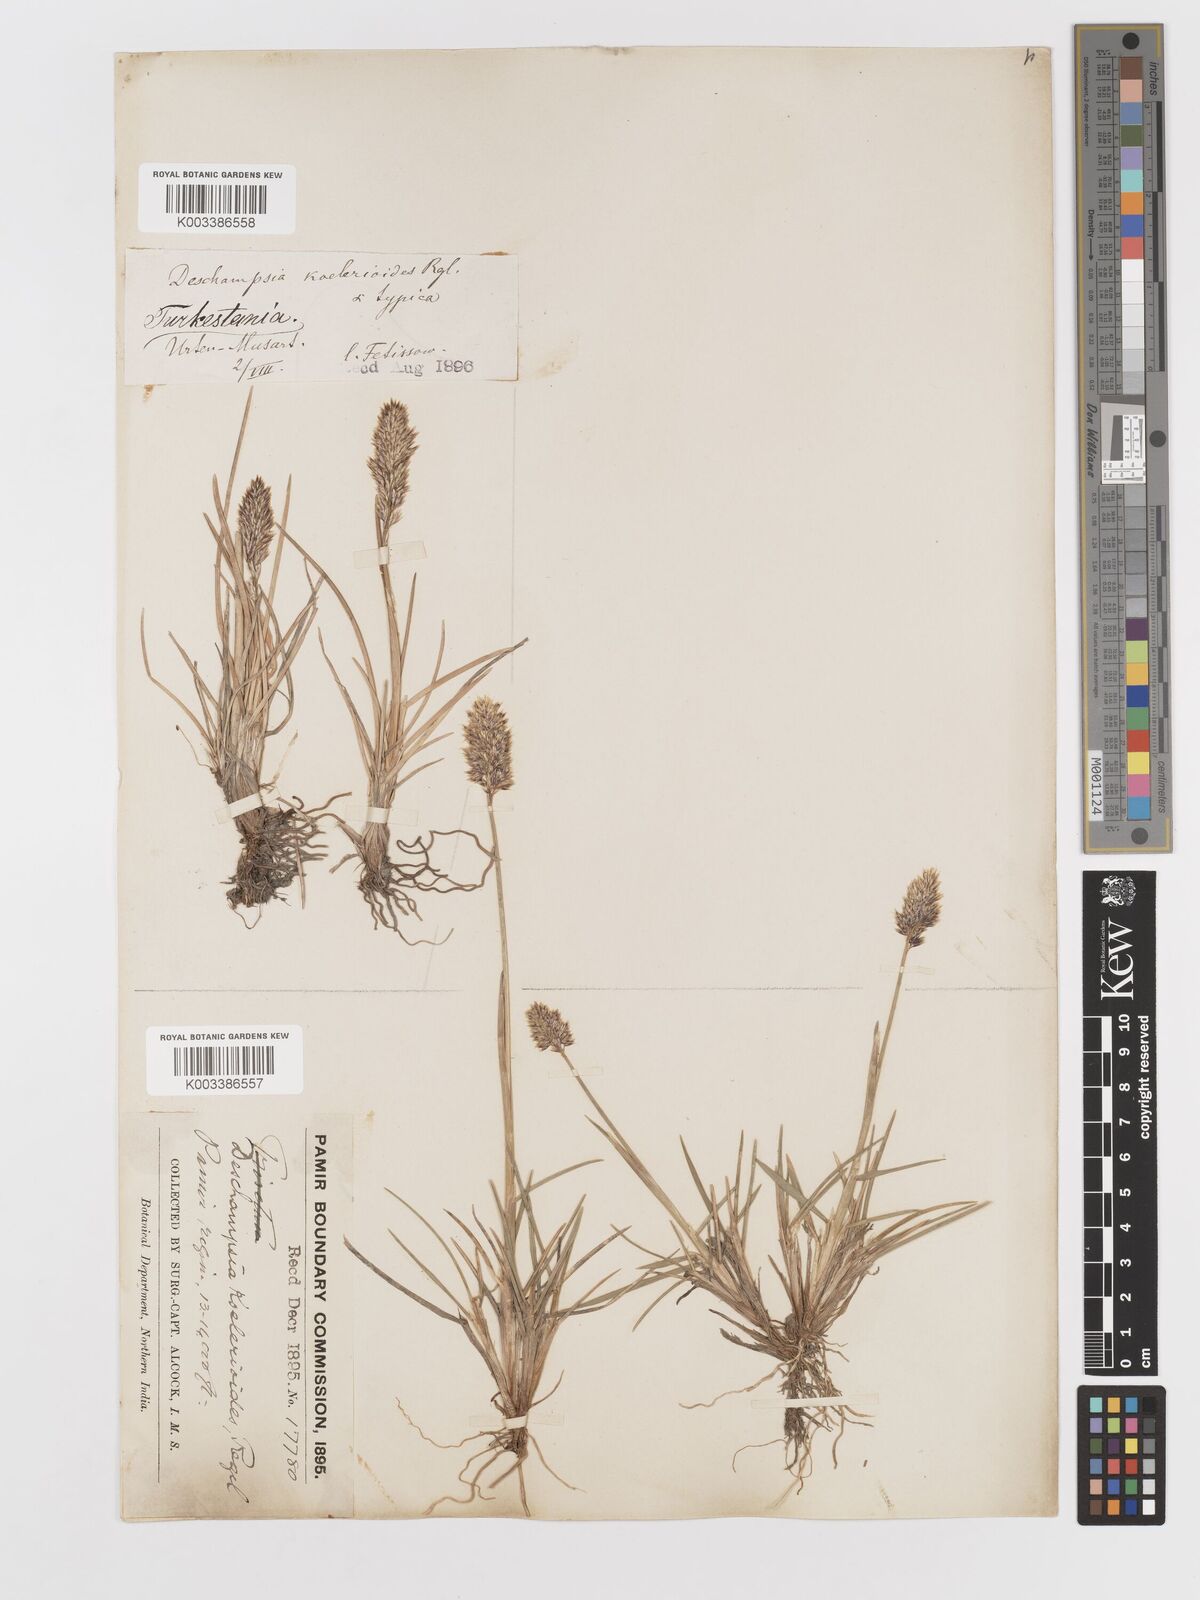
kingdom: Plantae
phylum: Tracheophyta
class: Liliopsida
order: Poales
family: Poaceae
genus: Deschampsia
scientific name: Deschampsia koelerioides
